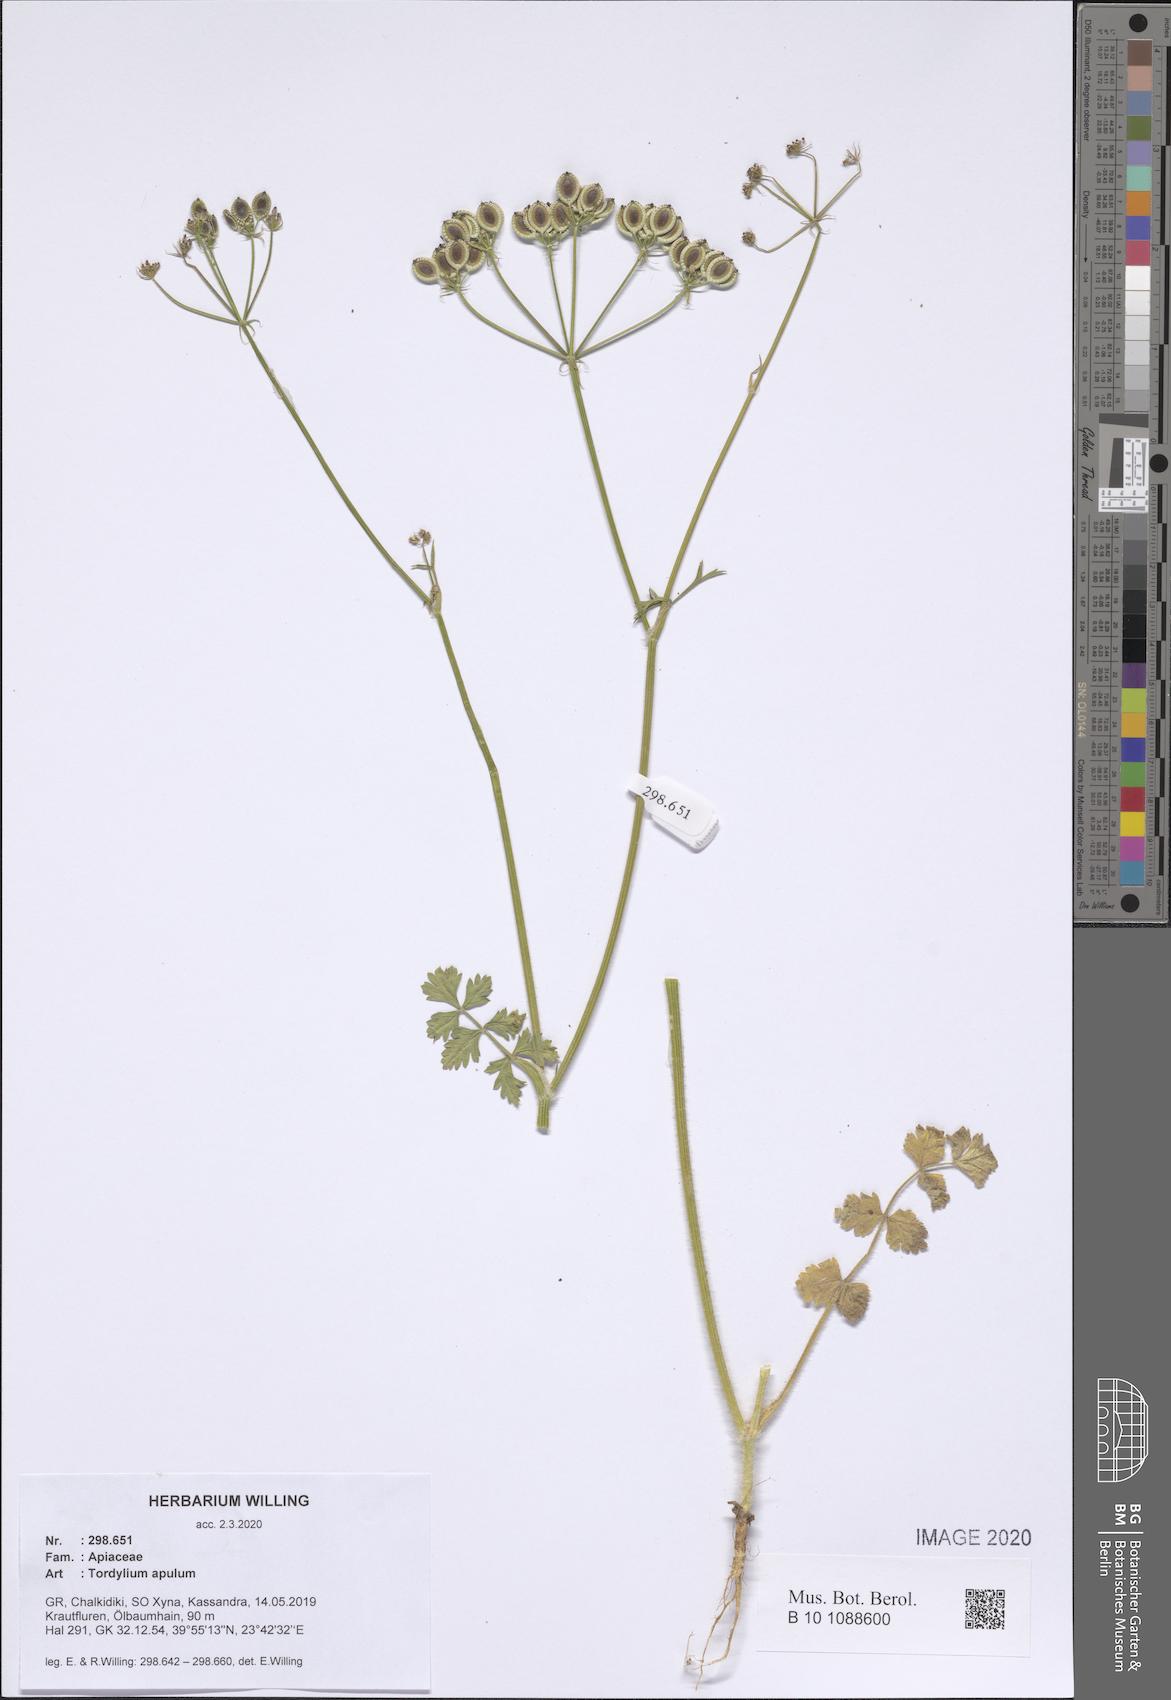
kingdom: Plantae
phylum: Tracheophyta
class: Magnoliopsida
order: Apiales
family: Apiaceae
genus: Tordylium
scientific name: Tordylium apulum
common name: Mediterranean hartwort
